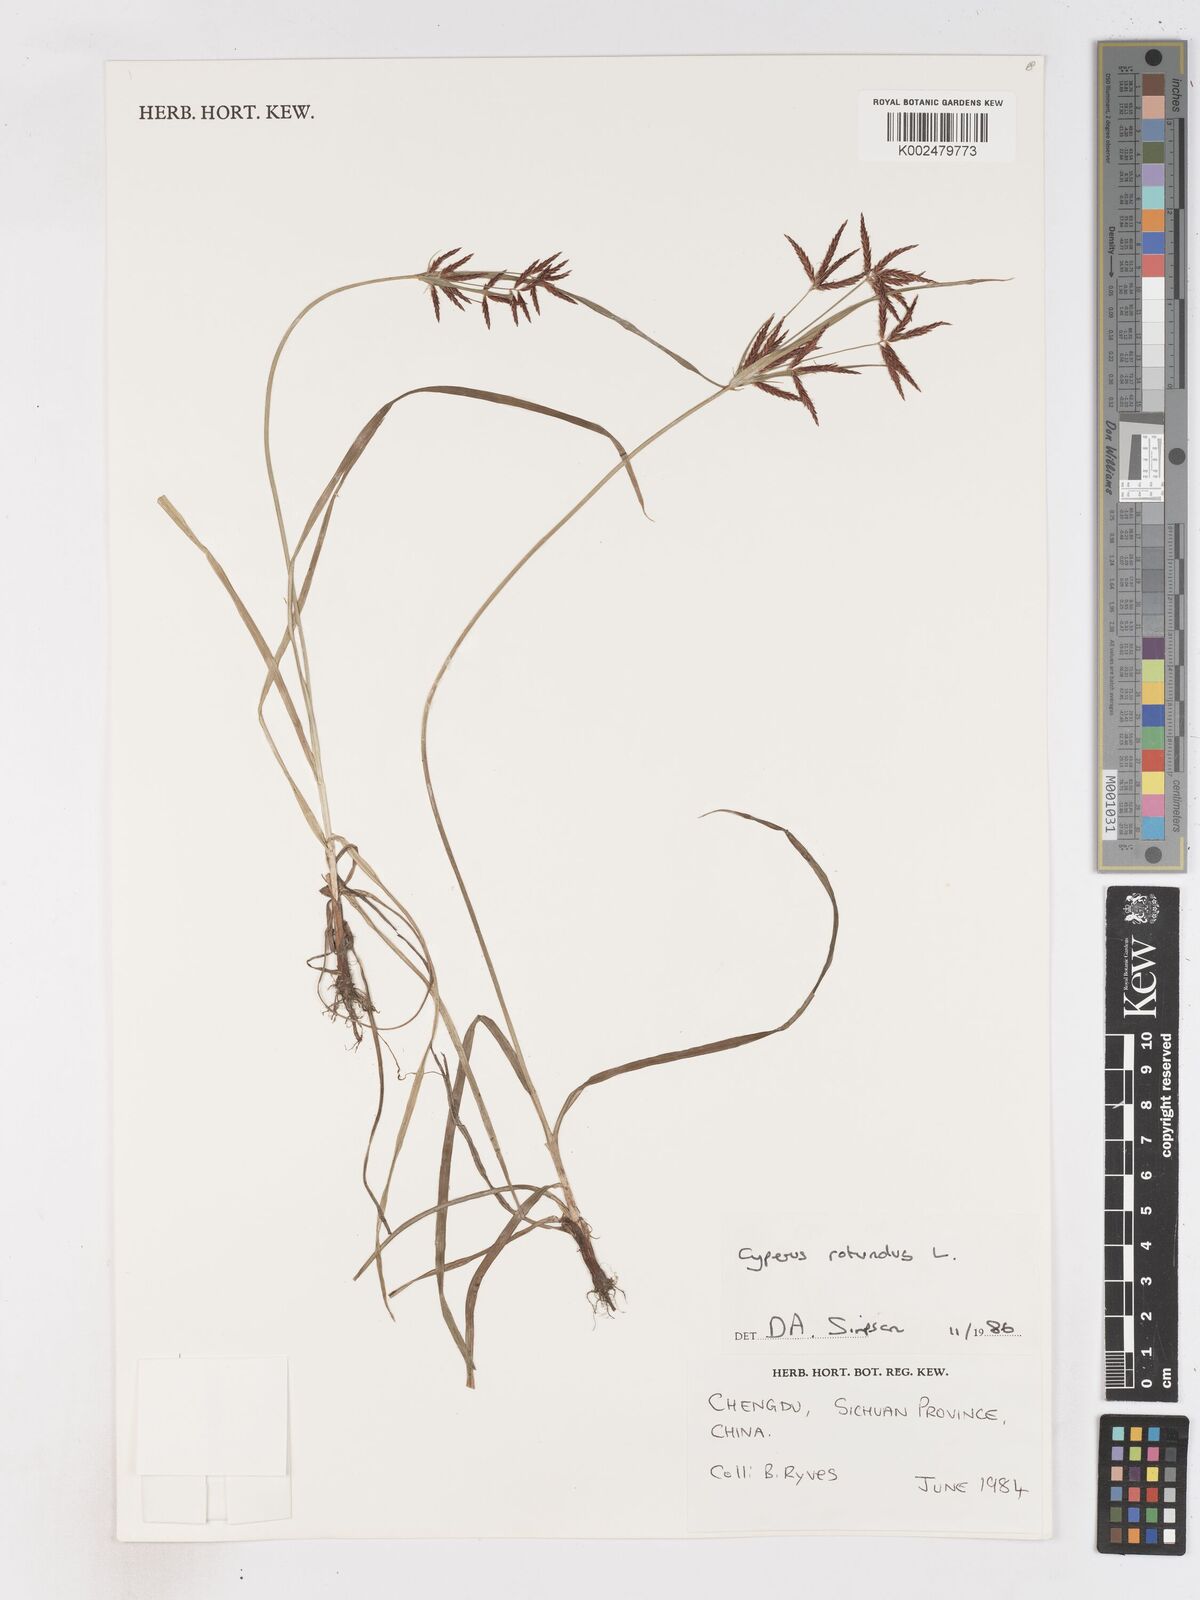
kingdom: Plantae
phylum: Tracheophyta
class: Liliopsida
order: Poales
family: Cyperaceae
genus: Cyperus
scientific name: Cyperus rotundus
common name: Nutgrass
